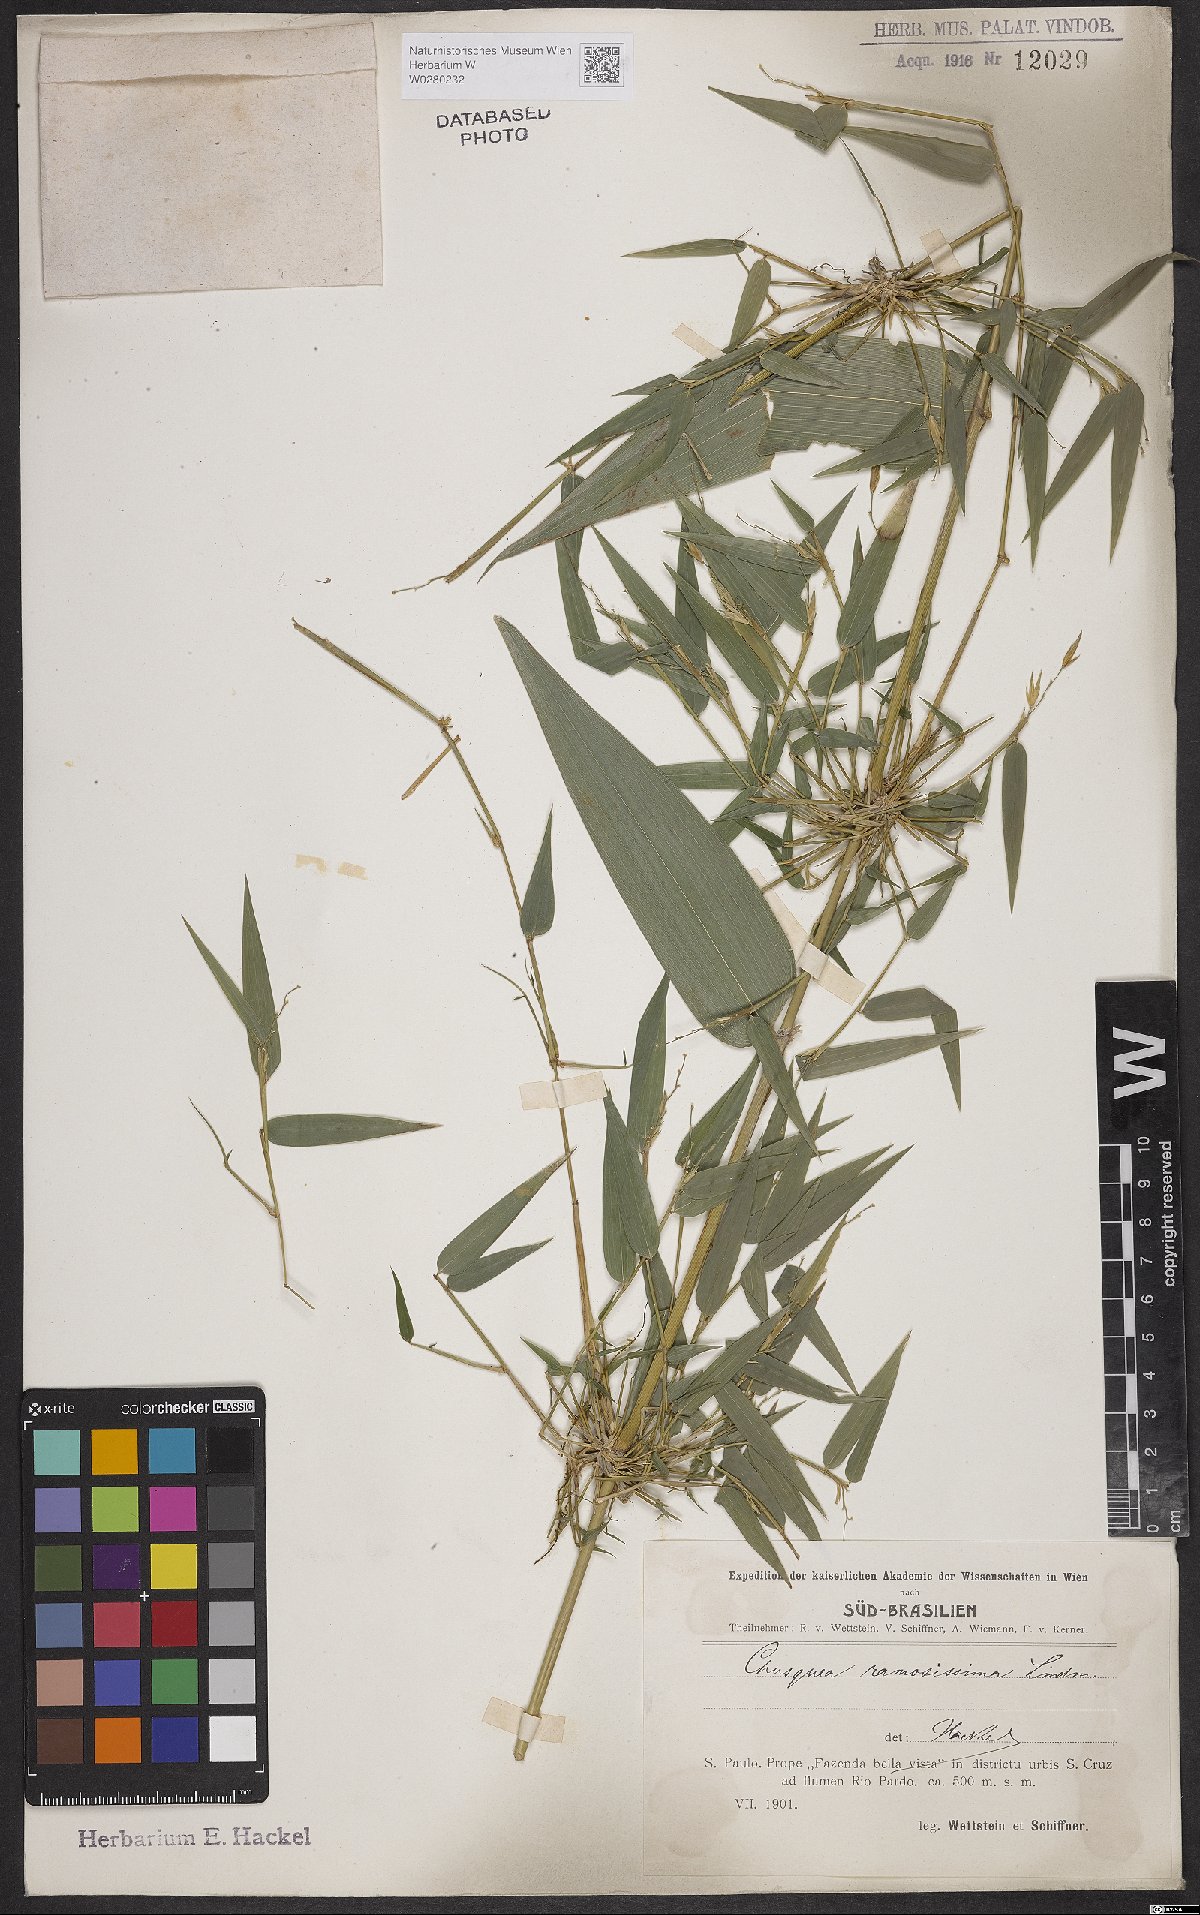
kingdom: Plantae
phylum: Tracheophyta
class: Liliopsida
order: Poales
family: Poaceae
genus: Chusquea
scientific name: Chusquea ramosissima
